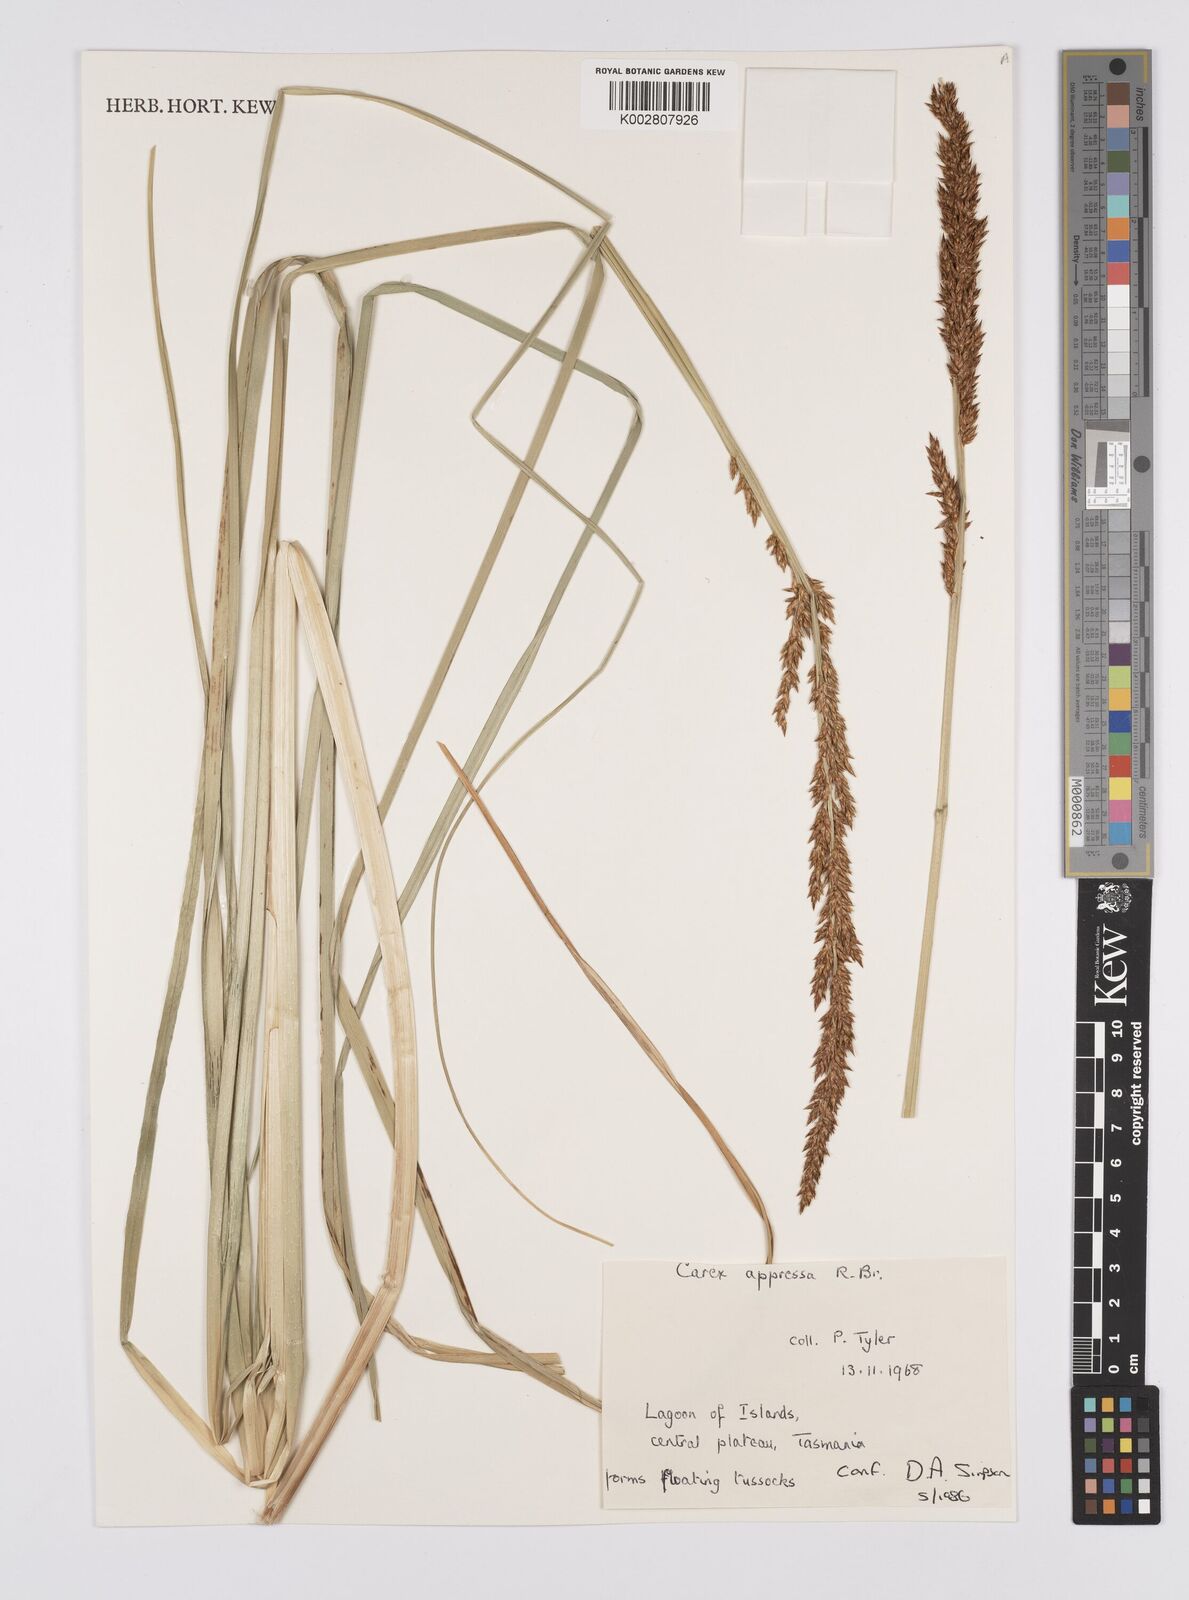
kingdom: Plantae
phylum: Tracheophyta
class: Liliopsida
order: Poales
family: Cyperaceae
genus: Carex
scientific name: Carex appressa
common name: Tussock sedge
